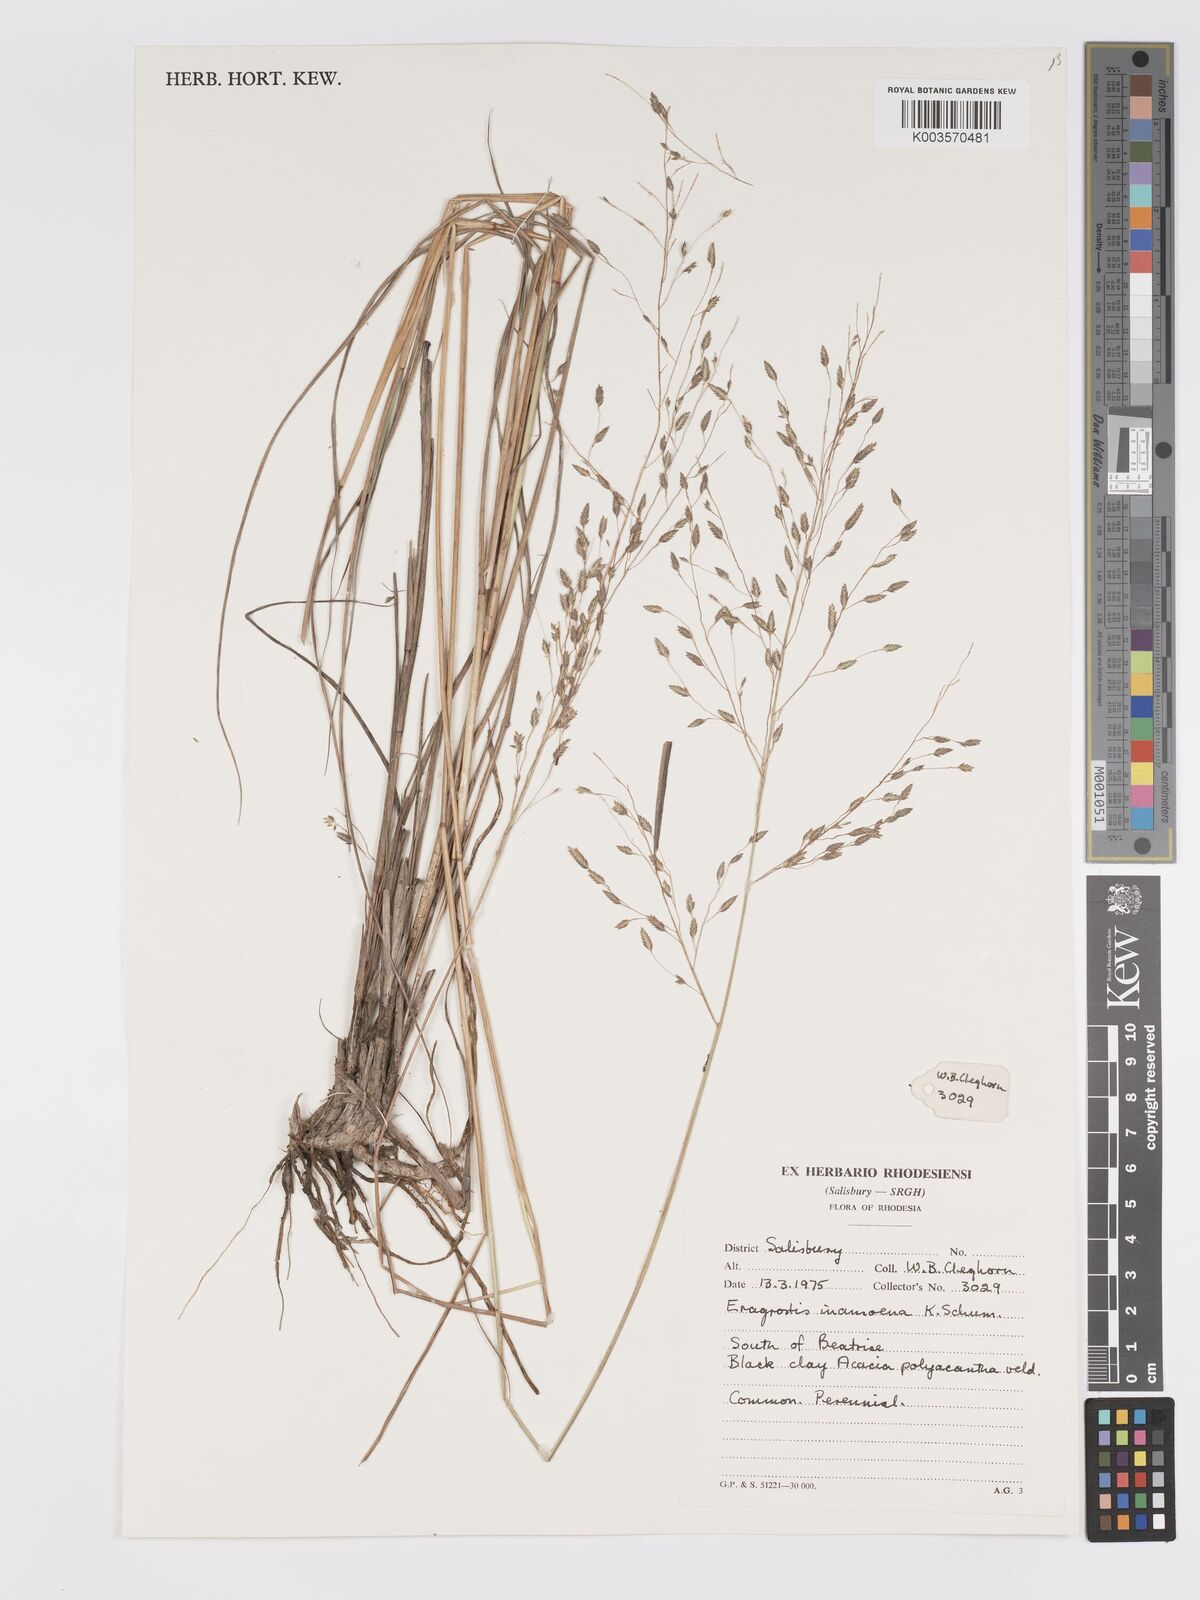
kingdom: Plantae
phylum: Tracheophyta
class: Liliopsida
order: Poales
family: Poaceae
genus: Eragrostis
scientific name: Eragrostis inamoena
